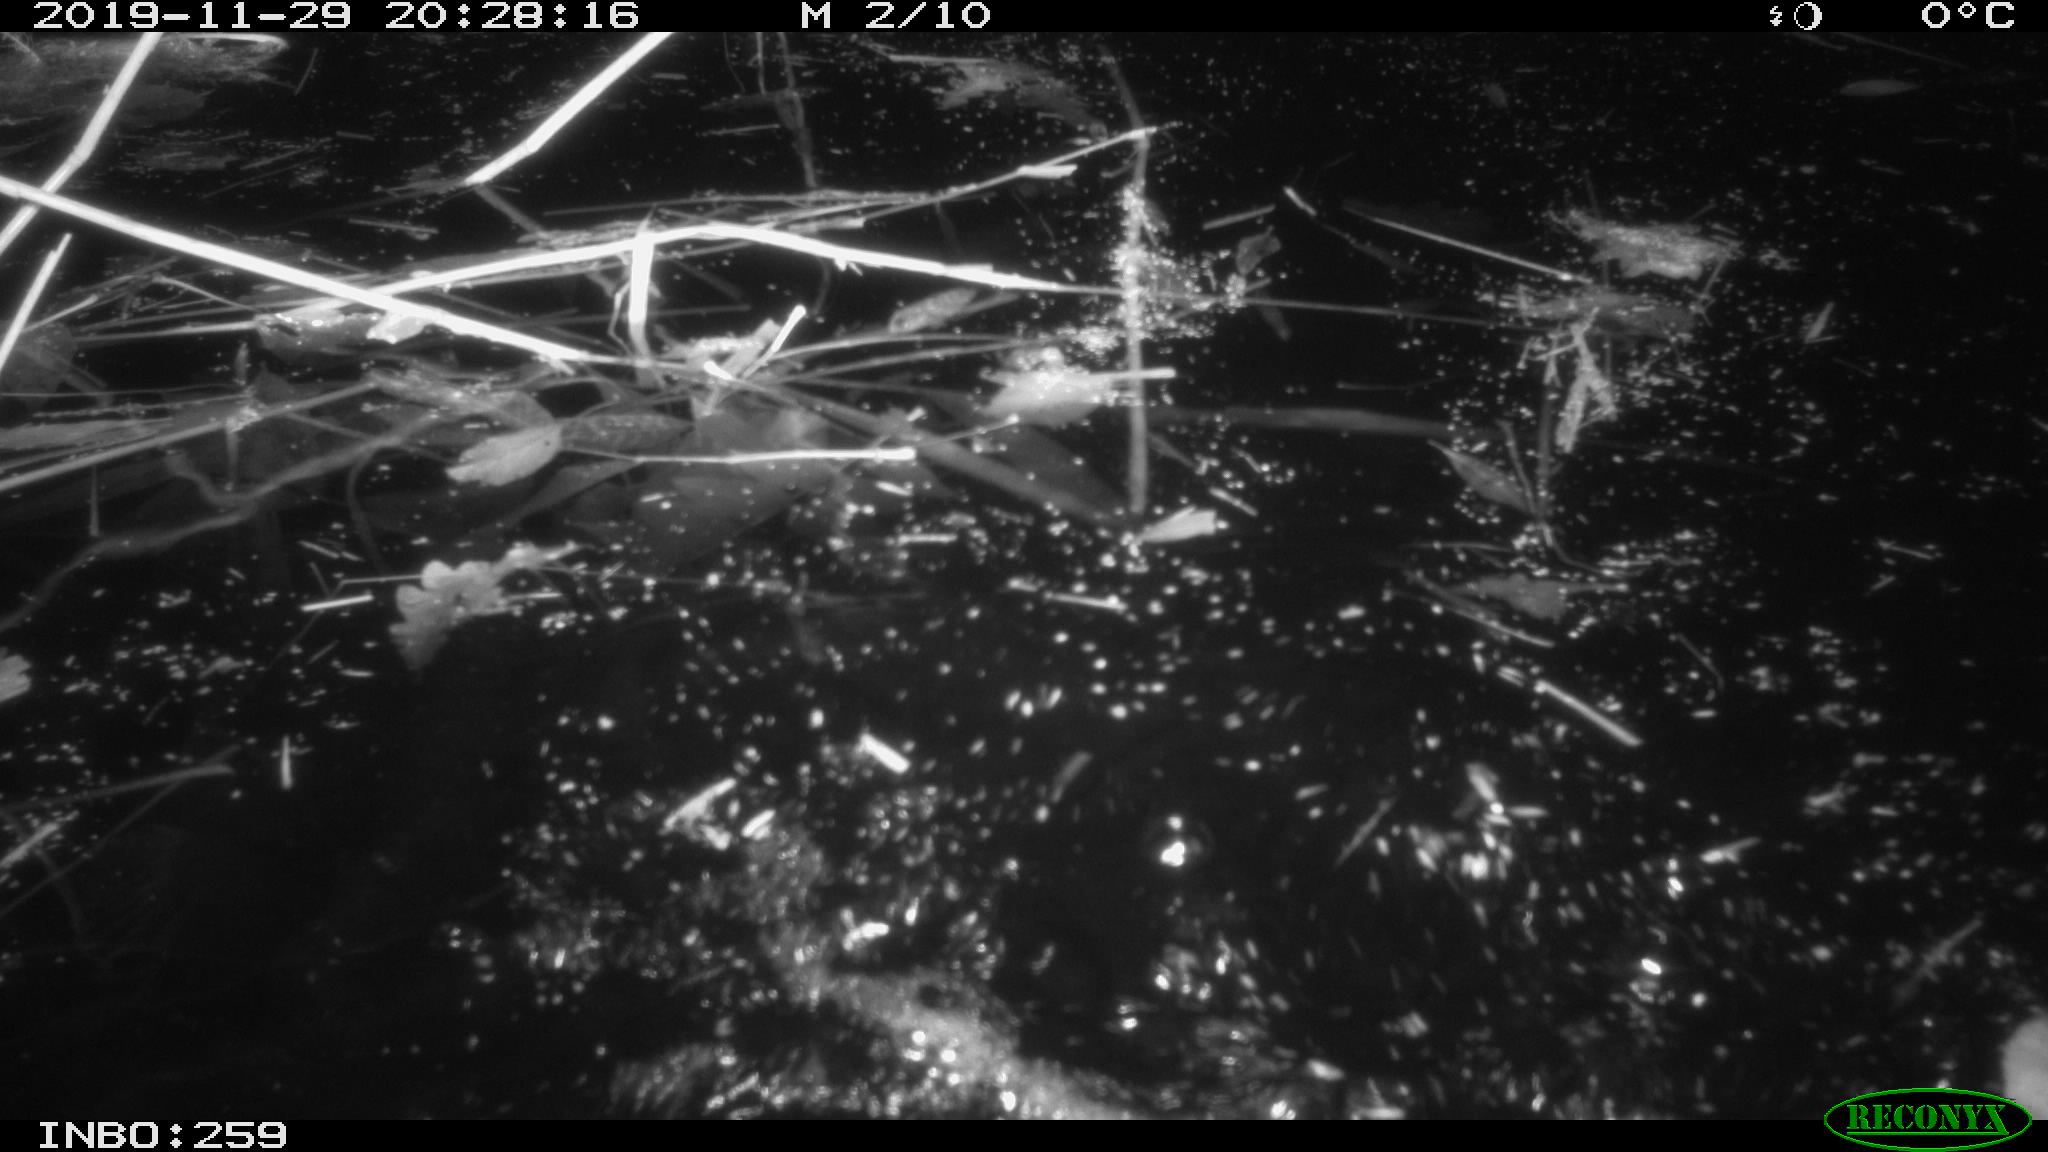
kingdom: Animalia
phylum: Chordata
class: Mammalia
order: Rodentia
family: Muridae
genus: Rattus
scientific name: Rattus norvegicus
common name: Brown rat
